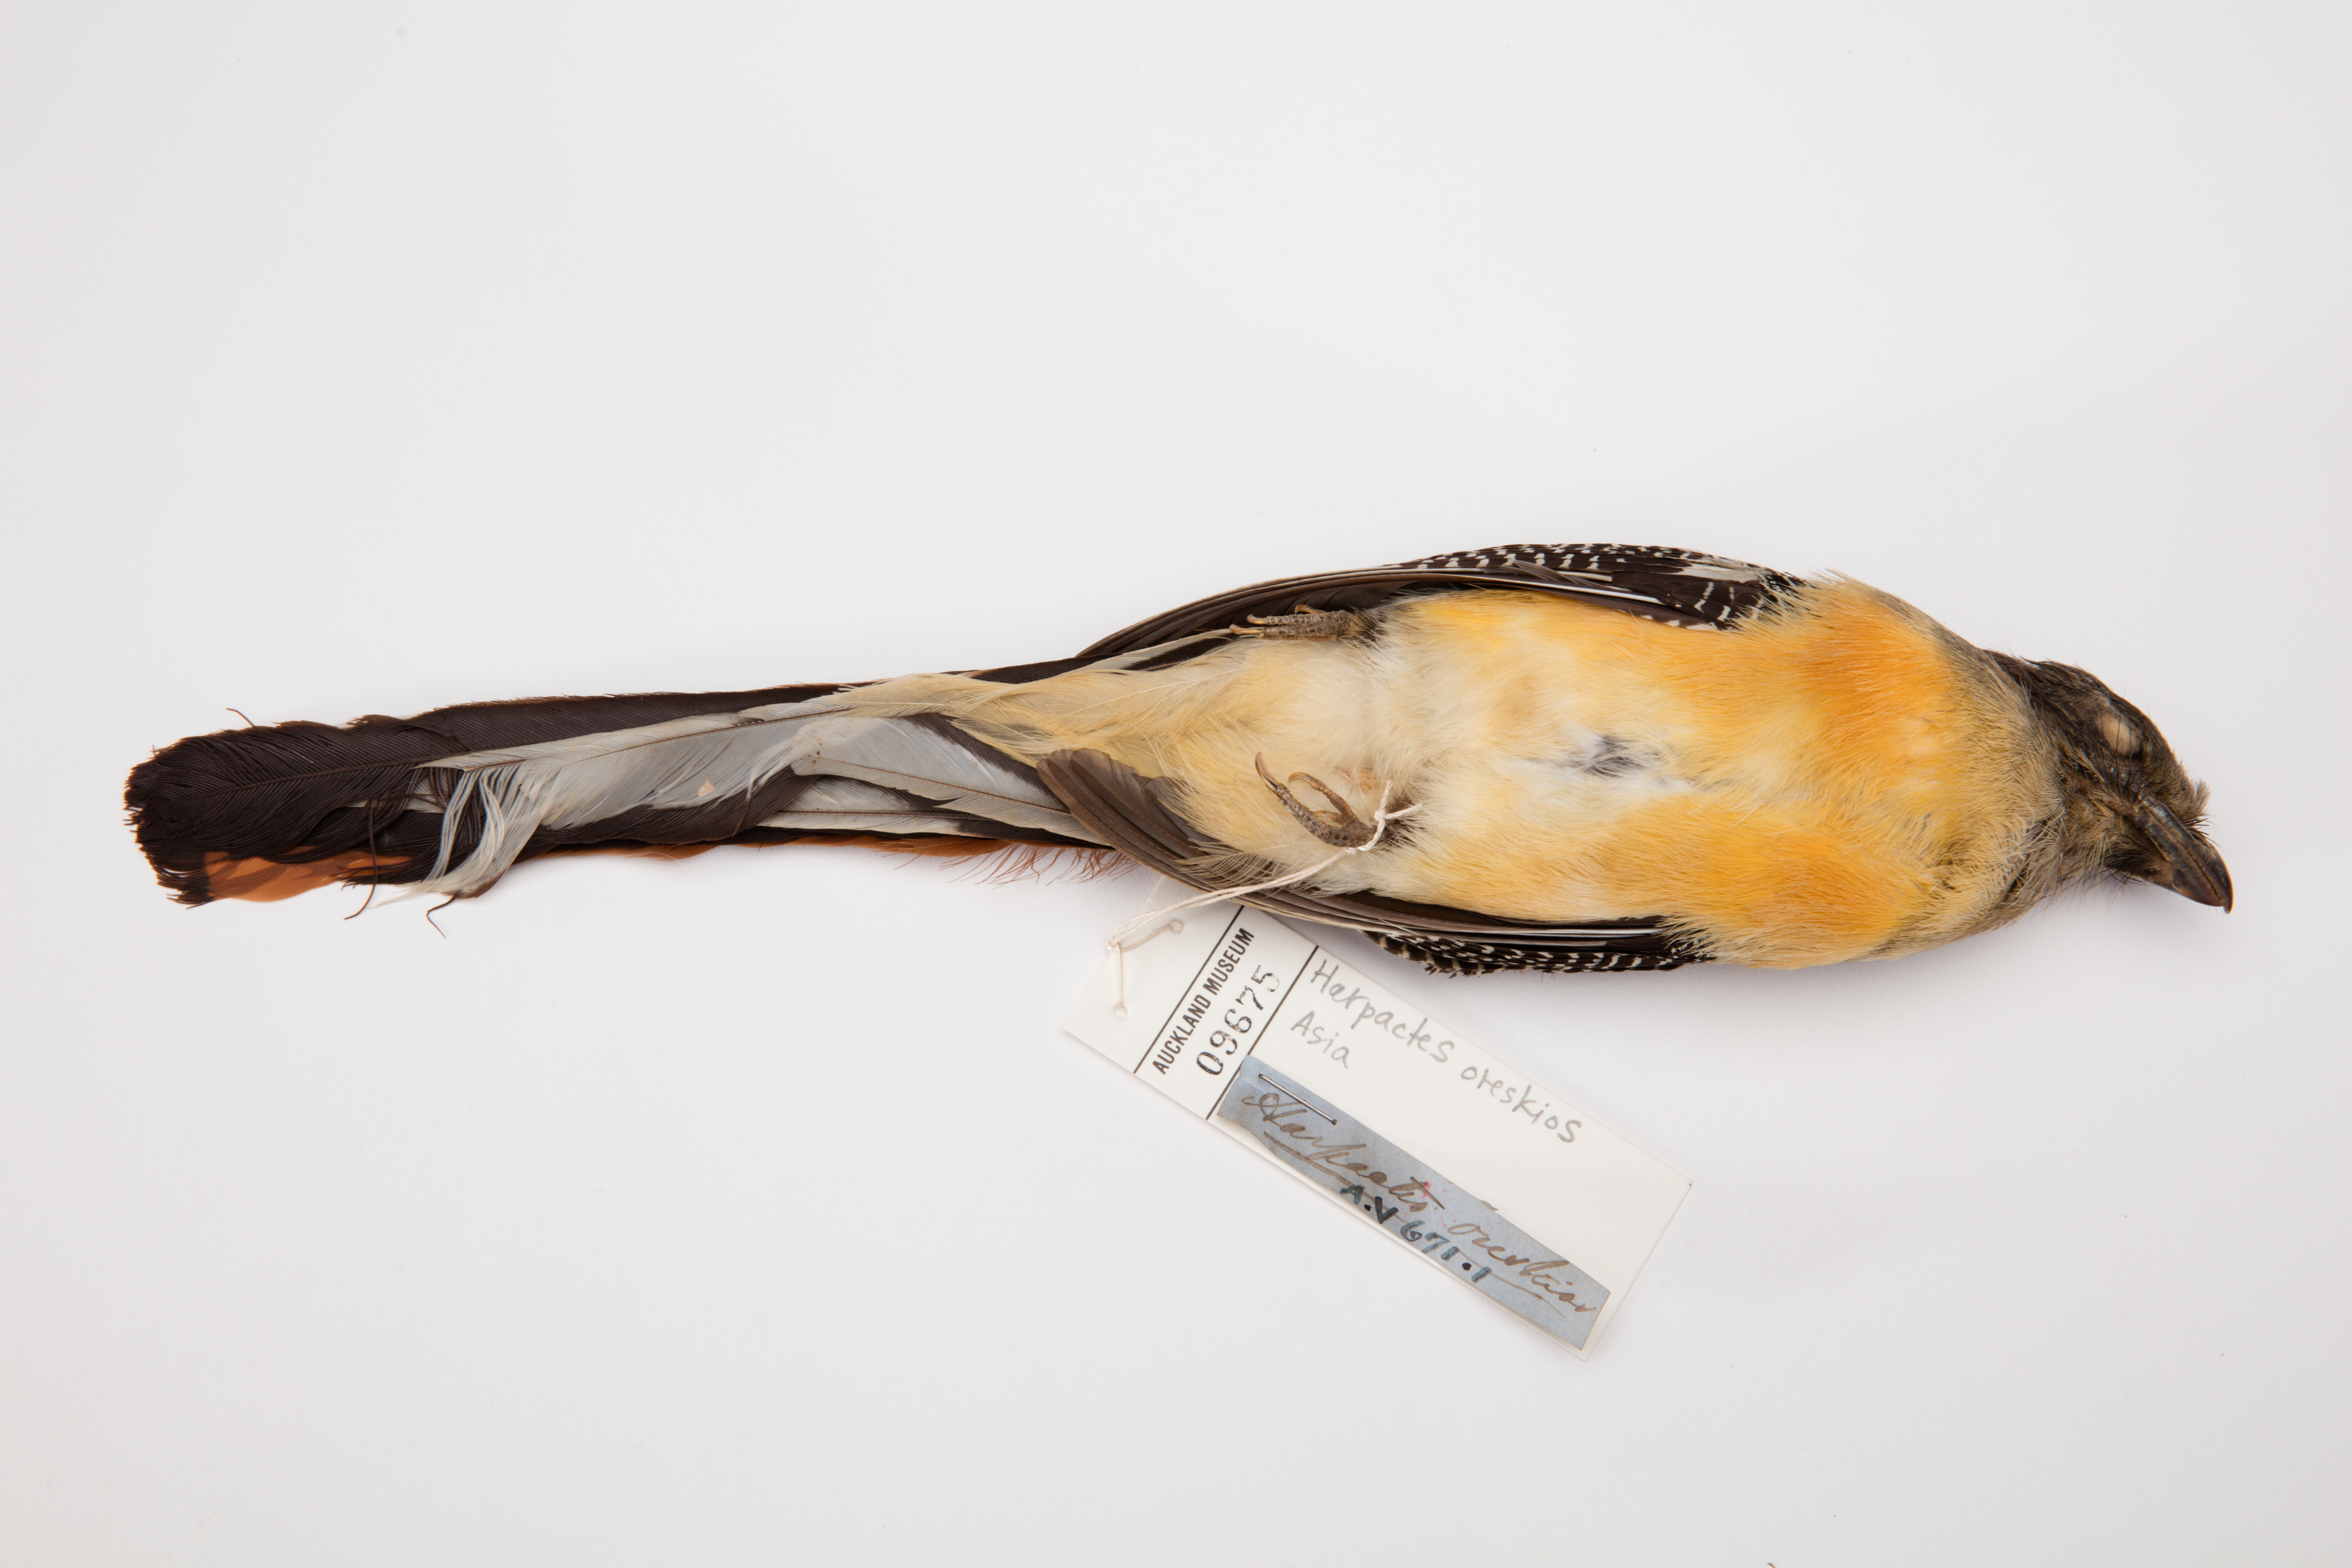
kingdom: Animalia
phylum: Chordata
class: Aves
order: Trogoniformes
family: Trogonidae
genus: Harpactes
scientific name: Harpactes oreskios
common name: Orange-breasted trogon
